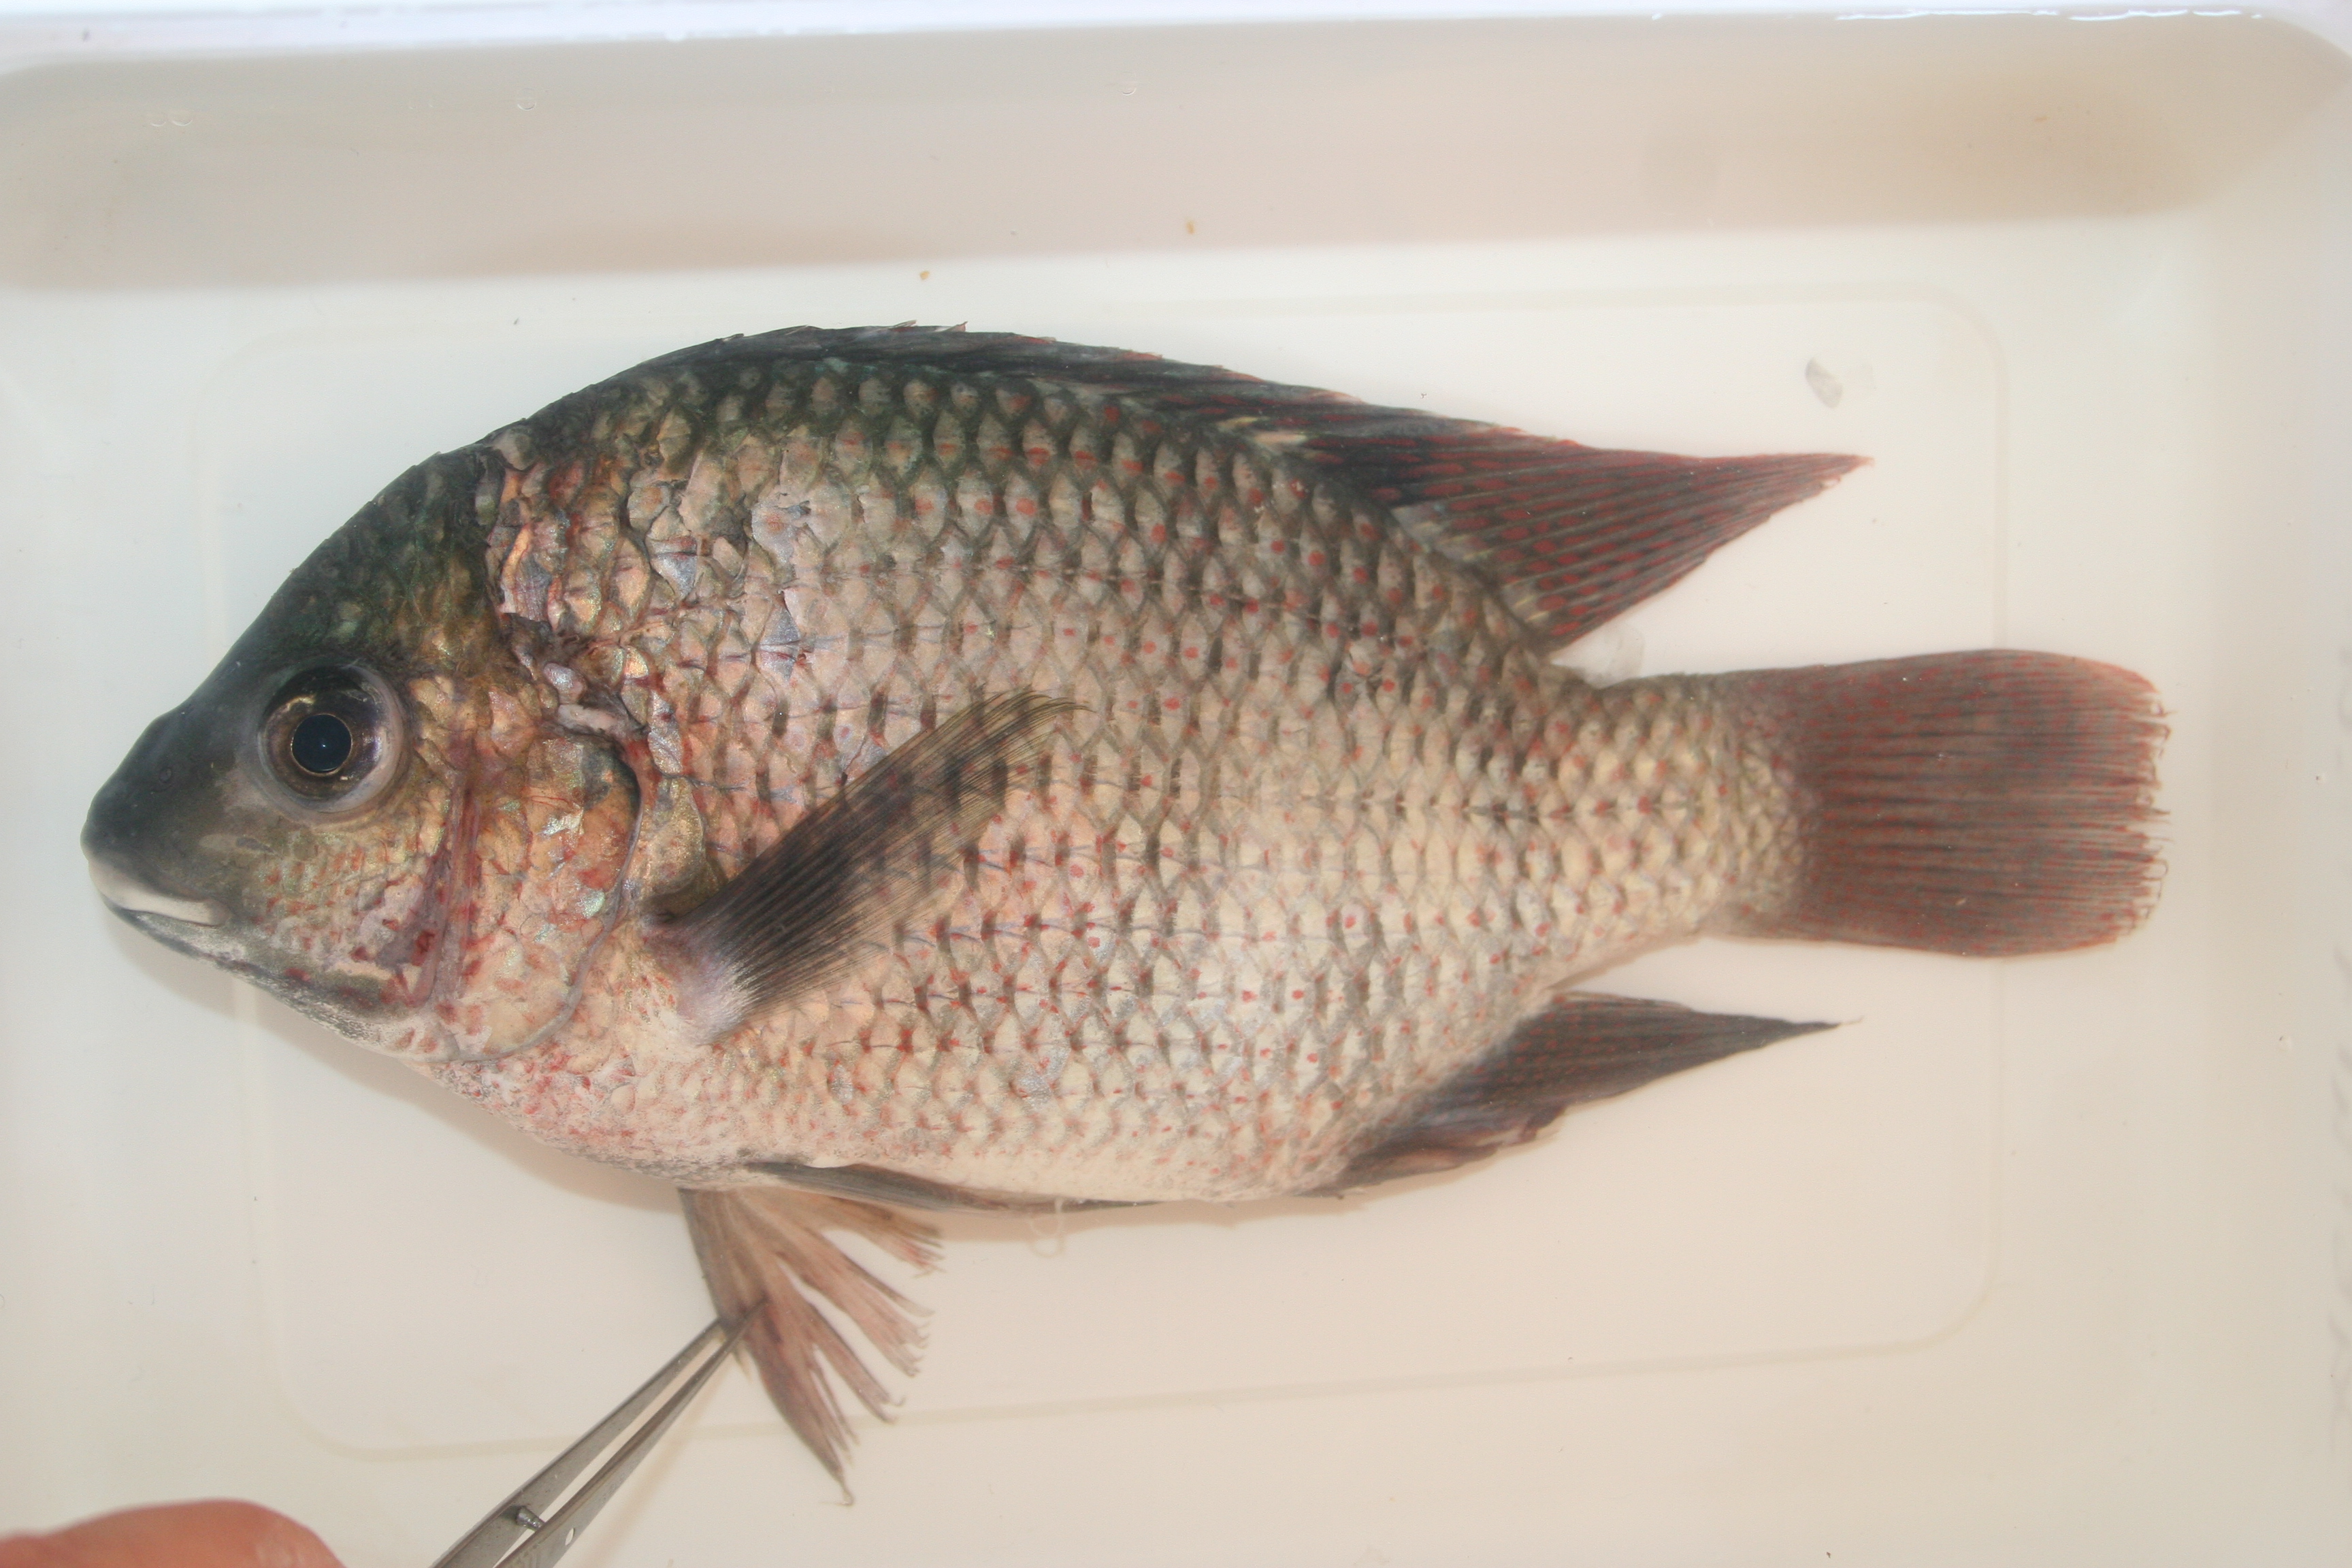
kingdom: Animalia
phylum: Chordata
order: Perciformes
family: Cichlidae
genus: Tilapia
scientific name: Tilapia
